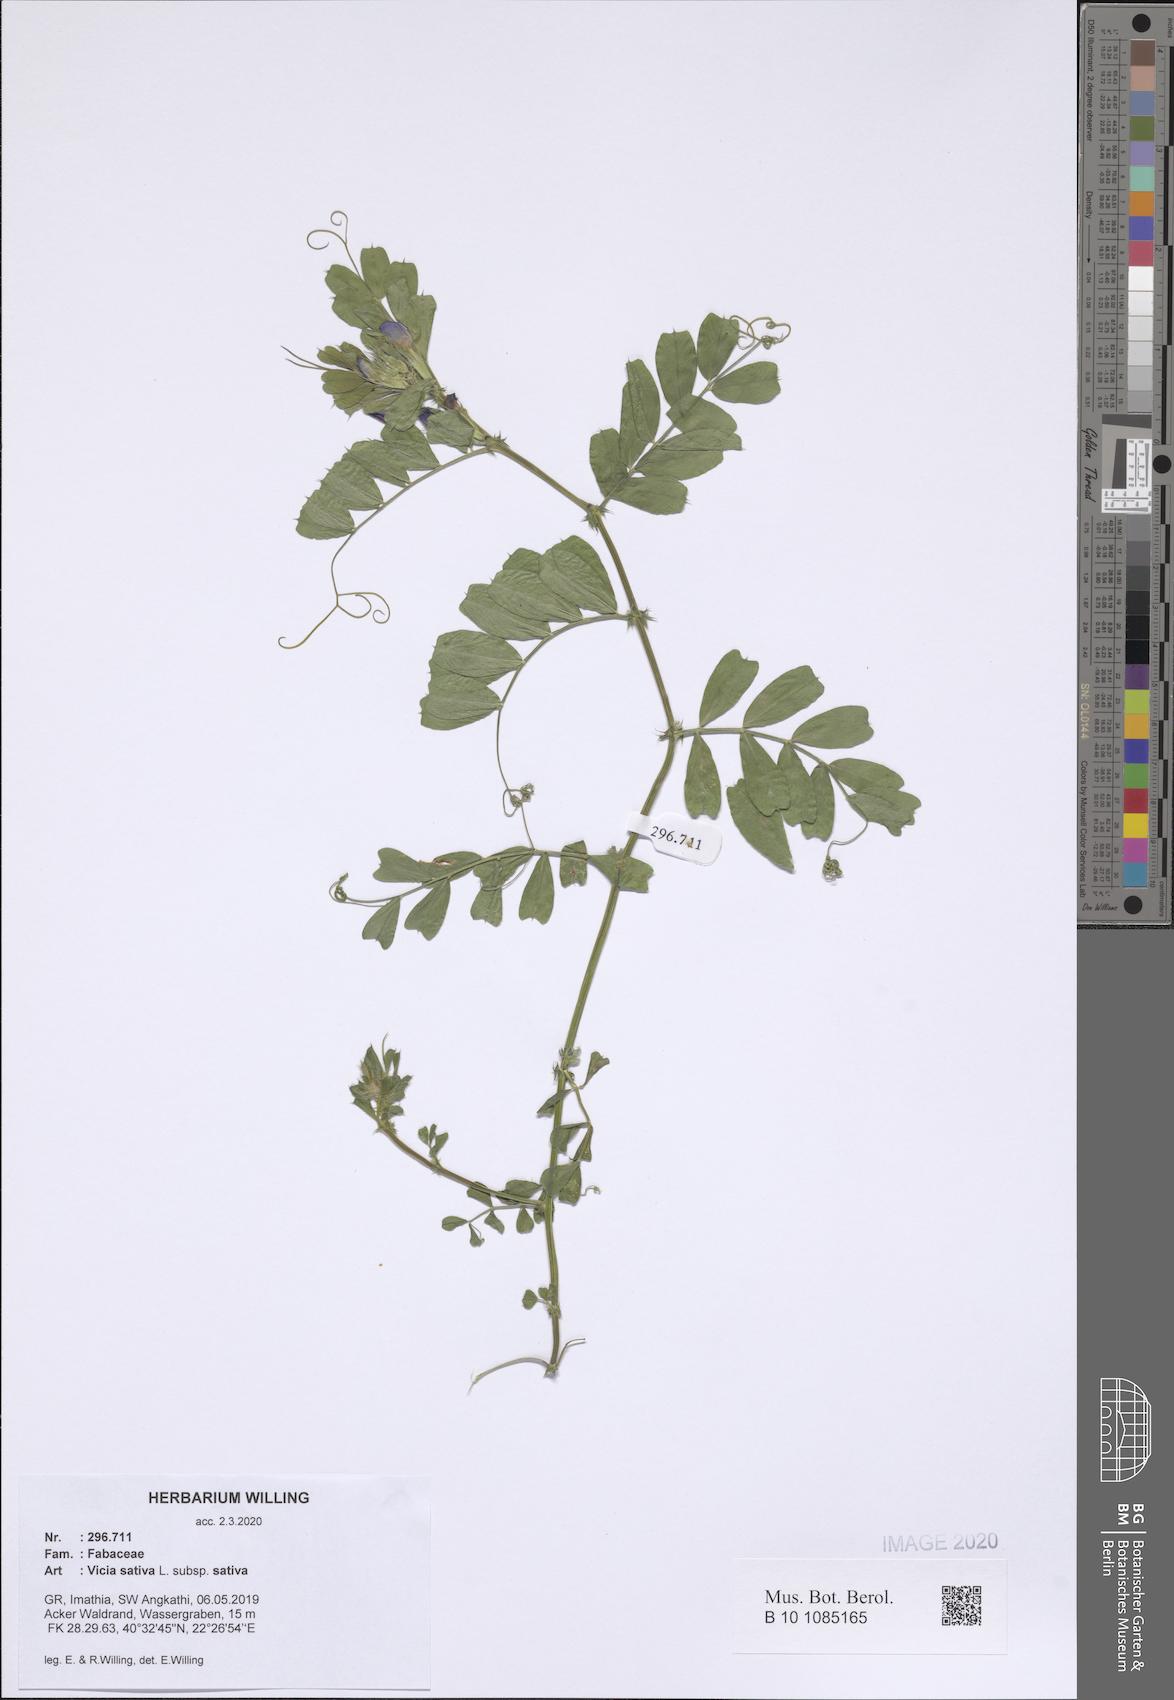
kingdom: Plantae
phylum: Tracheophyta
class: Magnoliopsida
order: Fabales
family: Fabaceae
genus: Vicia
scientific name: Vicia sativa
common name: Garden vetch
